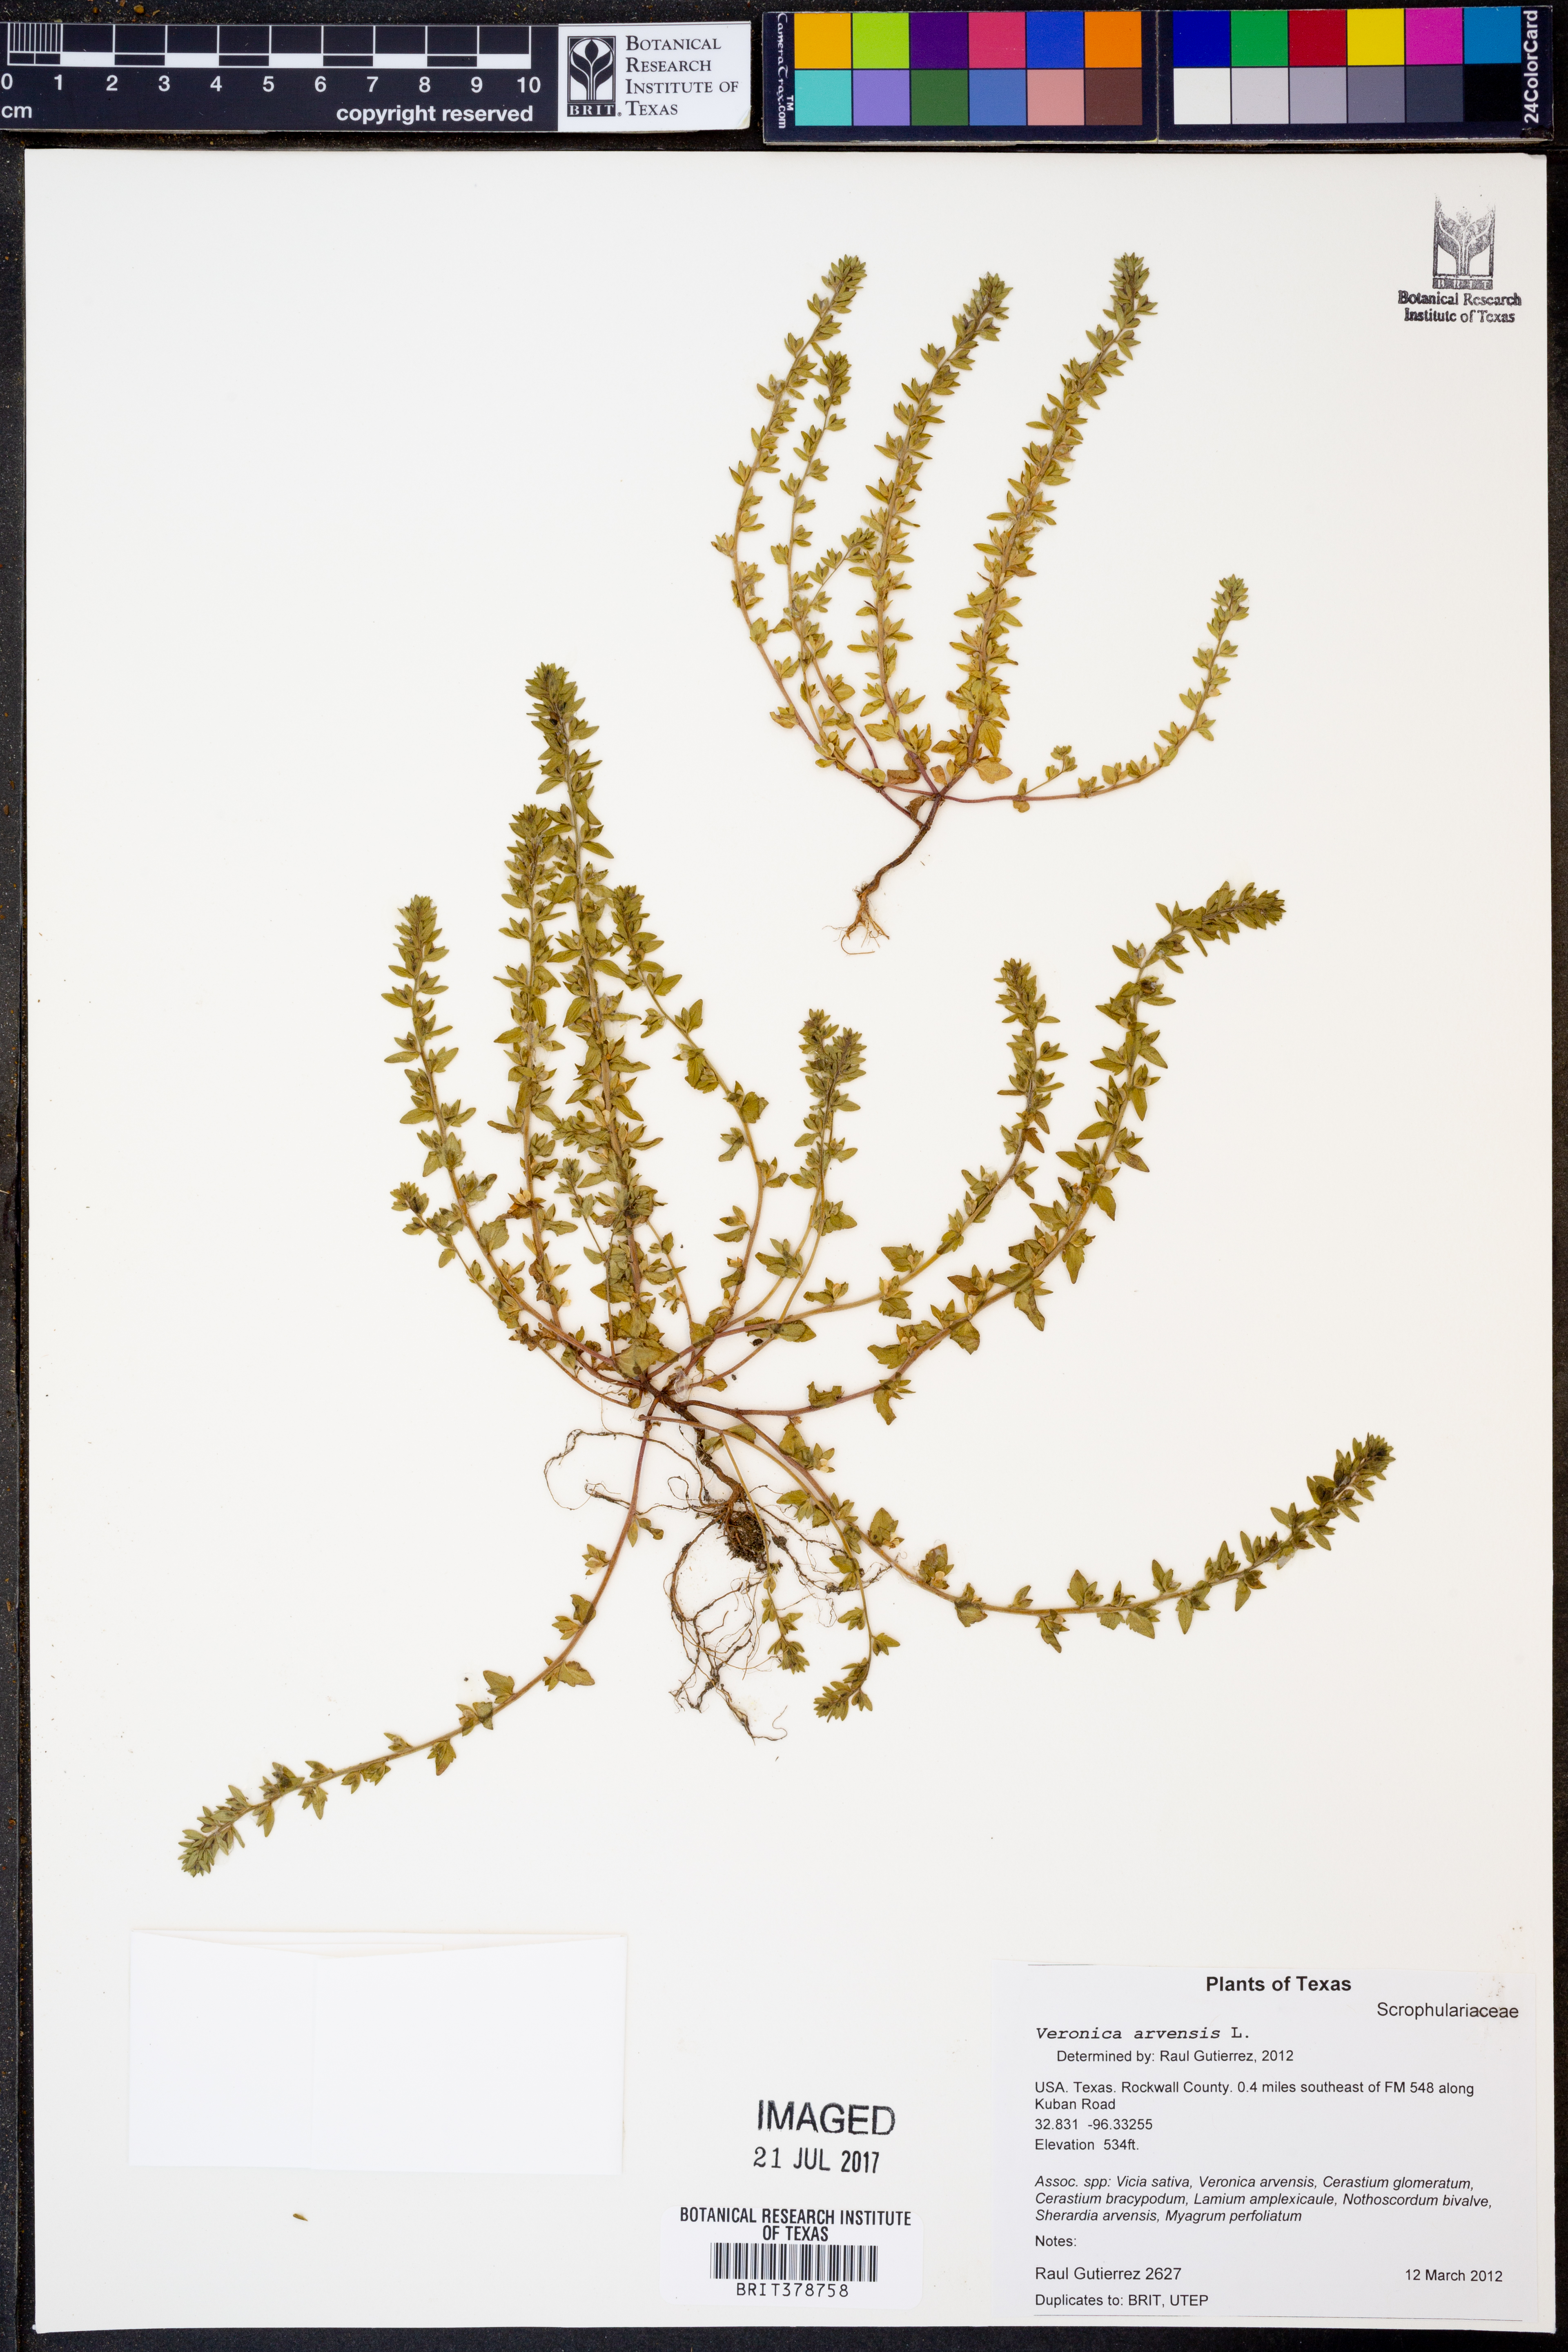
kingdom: Plantae
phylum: Tracheophyta
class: Magnoliopsida
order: Lamiales
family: Plantaginaceae
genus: Veronica
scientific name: Veronica arvensis
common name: Corn speedwell
